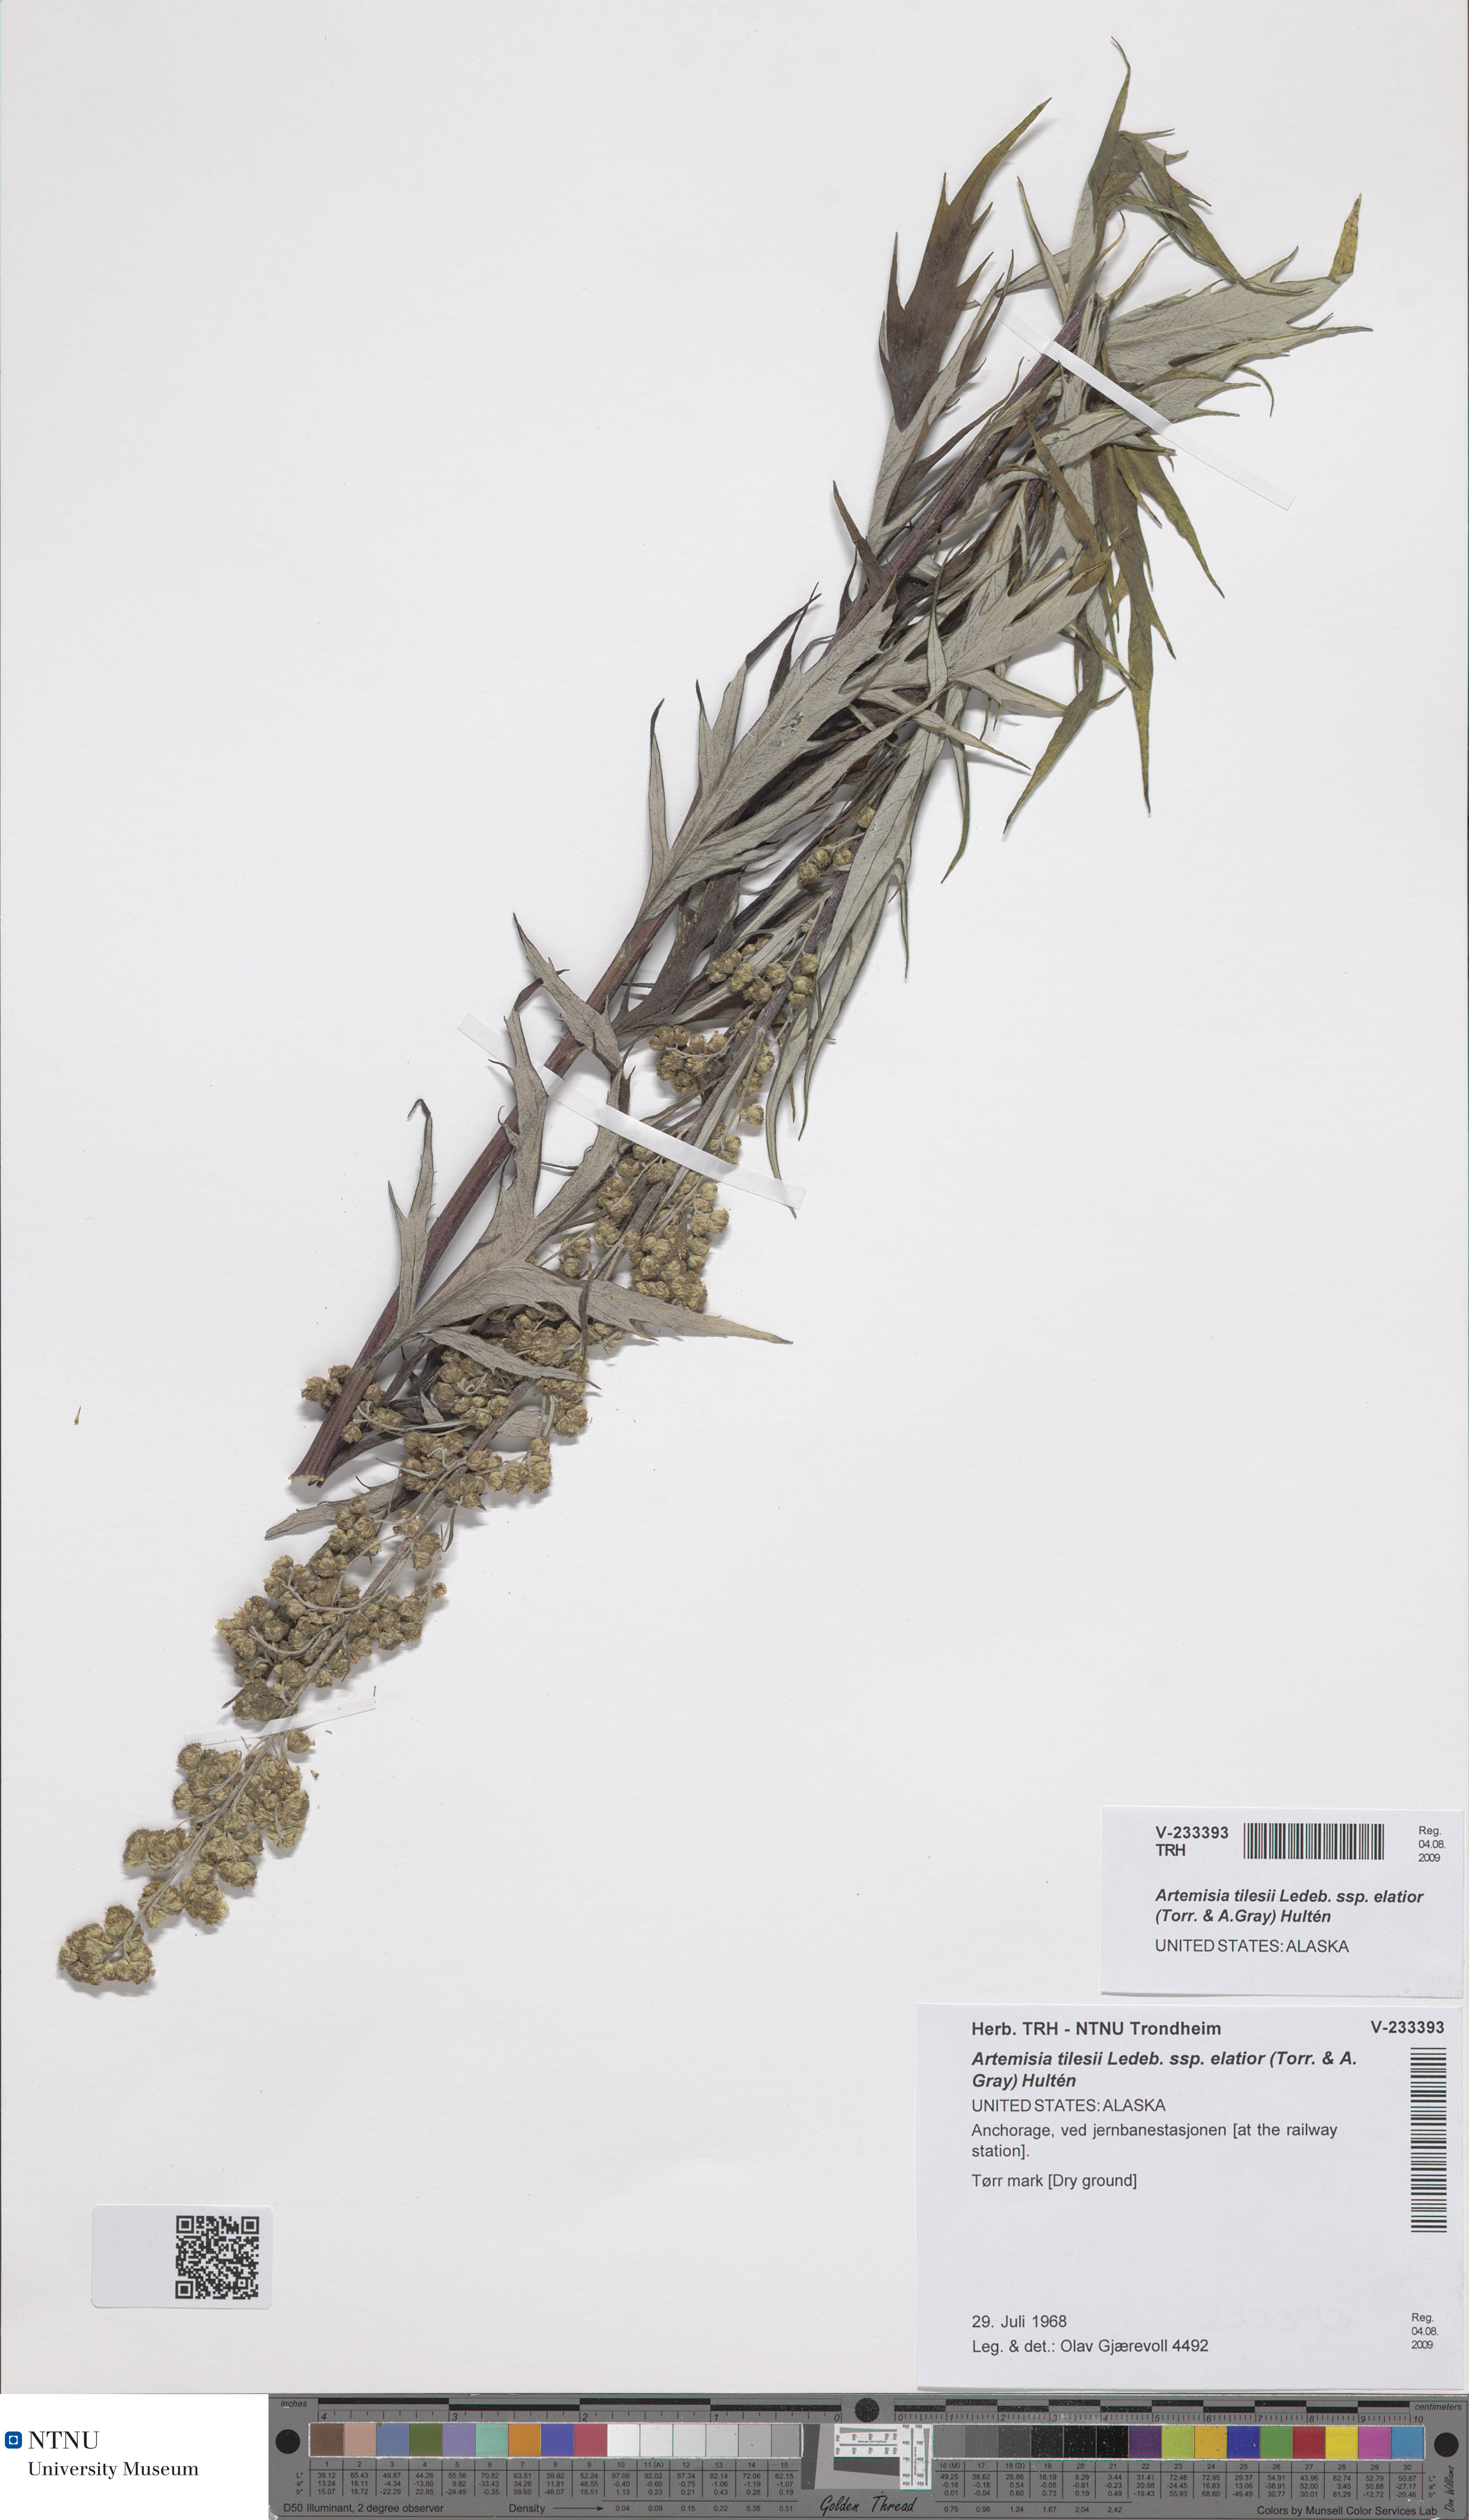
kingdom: Plantae
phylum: Tracheophyta
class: Magnoliopsida
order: Asterales
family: Asteraceae
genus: Artemisia
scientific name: Artemisia tilesii
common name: Aleutian mugwort
